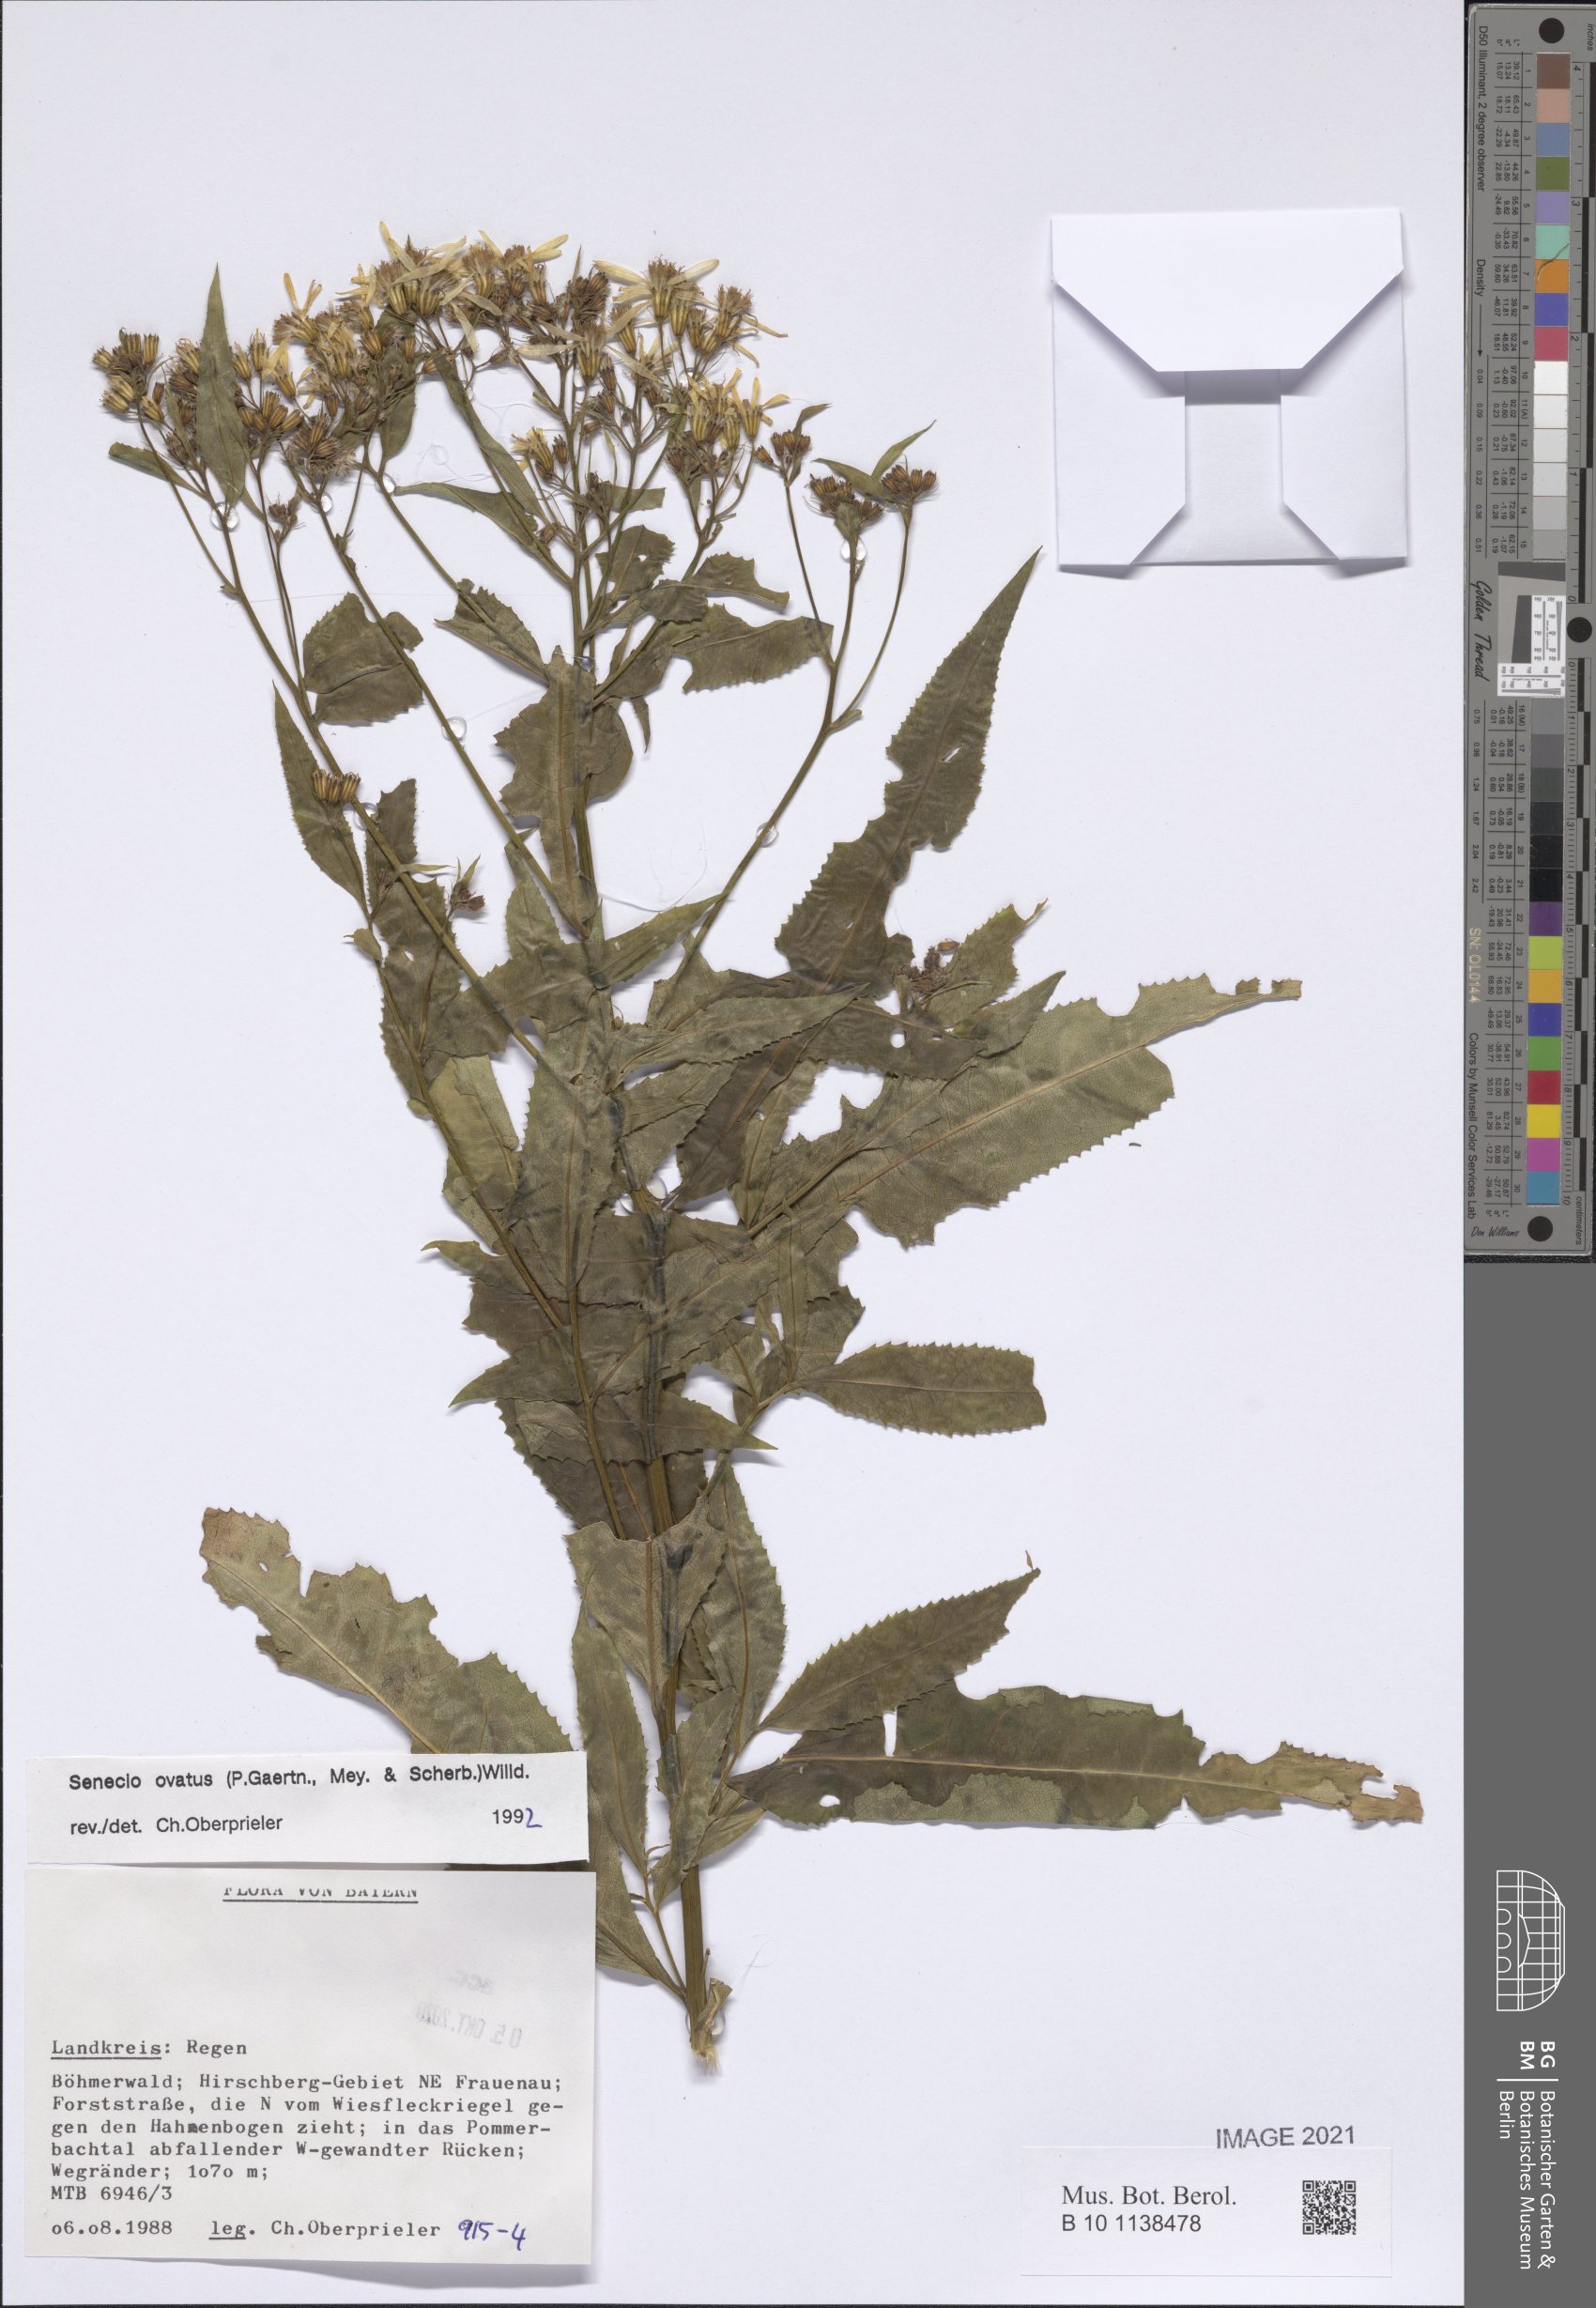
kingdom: Plantae
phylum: Tracheophyta
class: Magnoliopsida
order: Asterales
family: Asteraceae
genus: Senecio
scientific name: Senecio ovatus
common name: Wood ragwort
